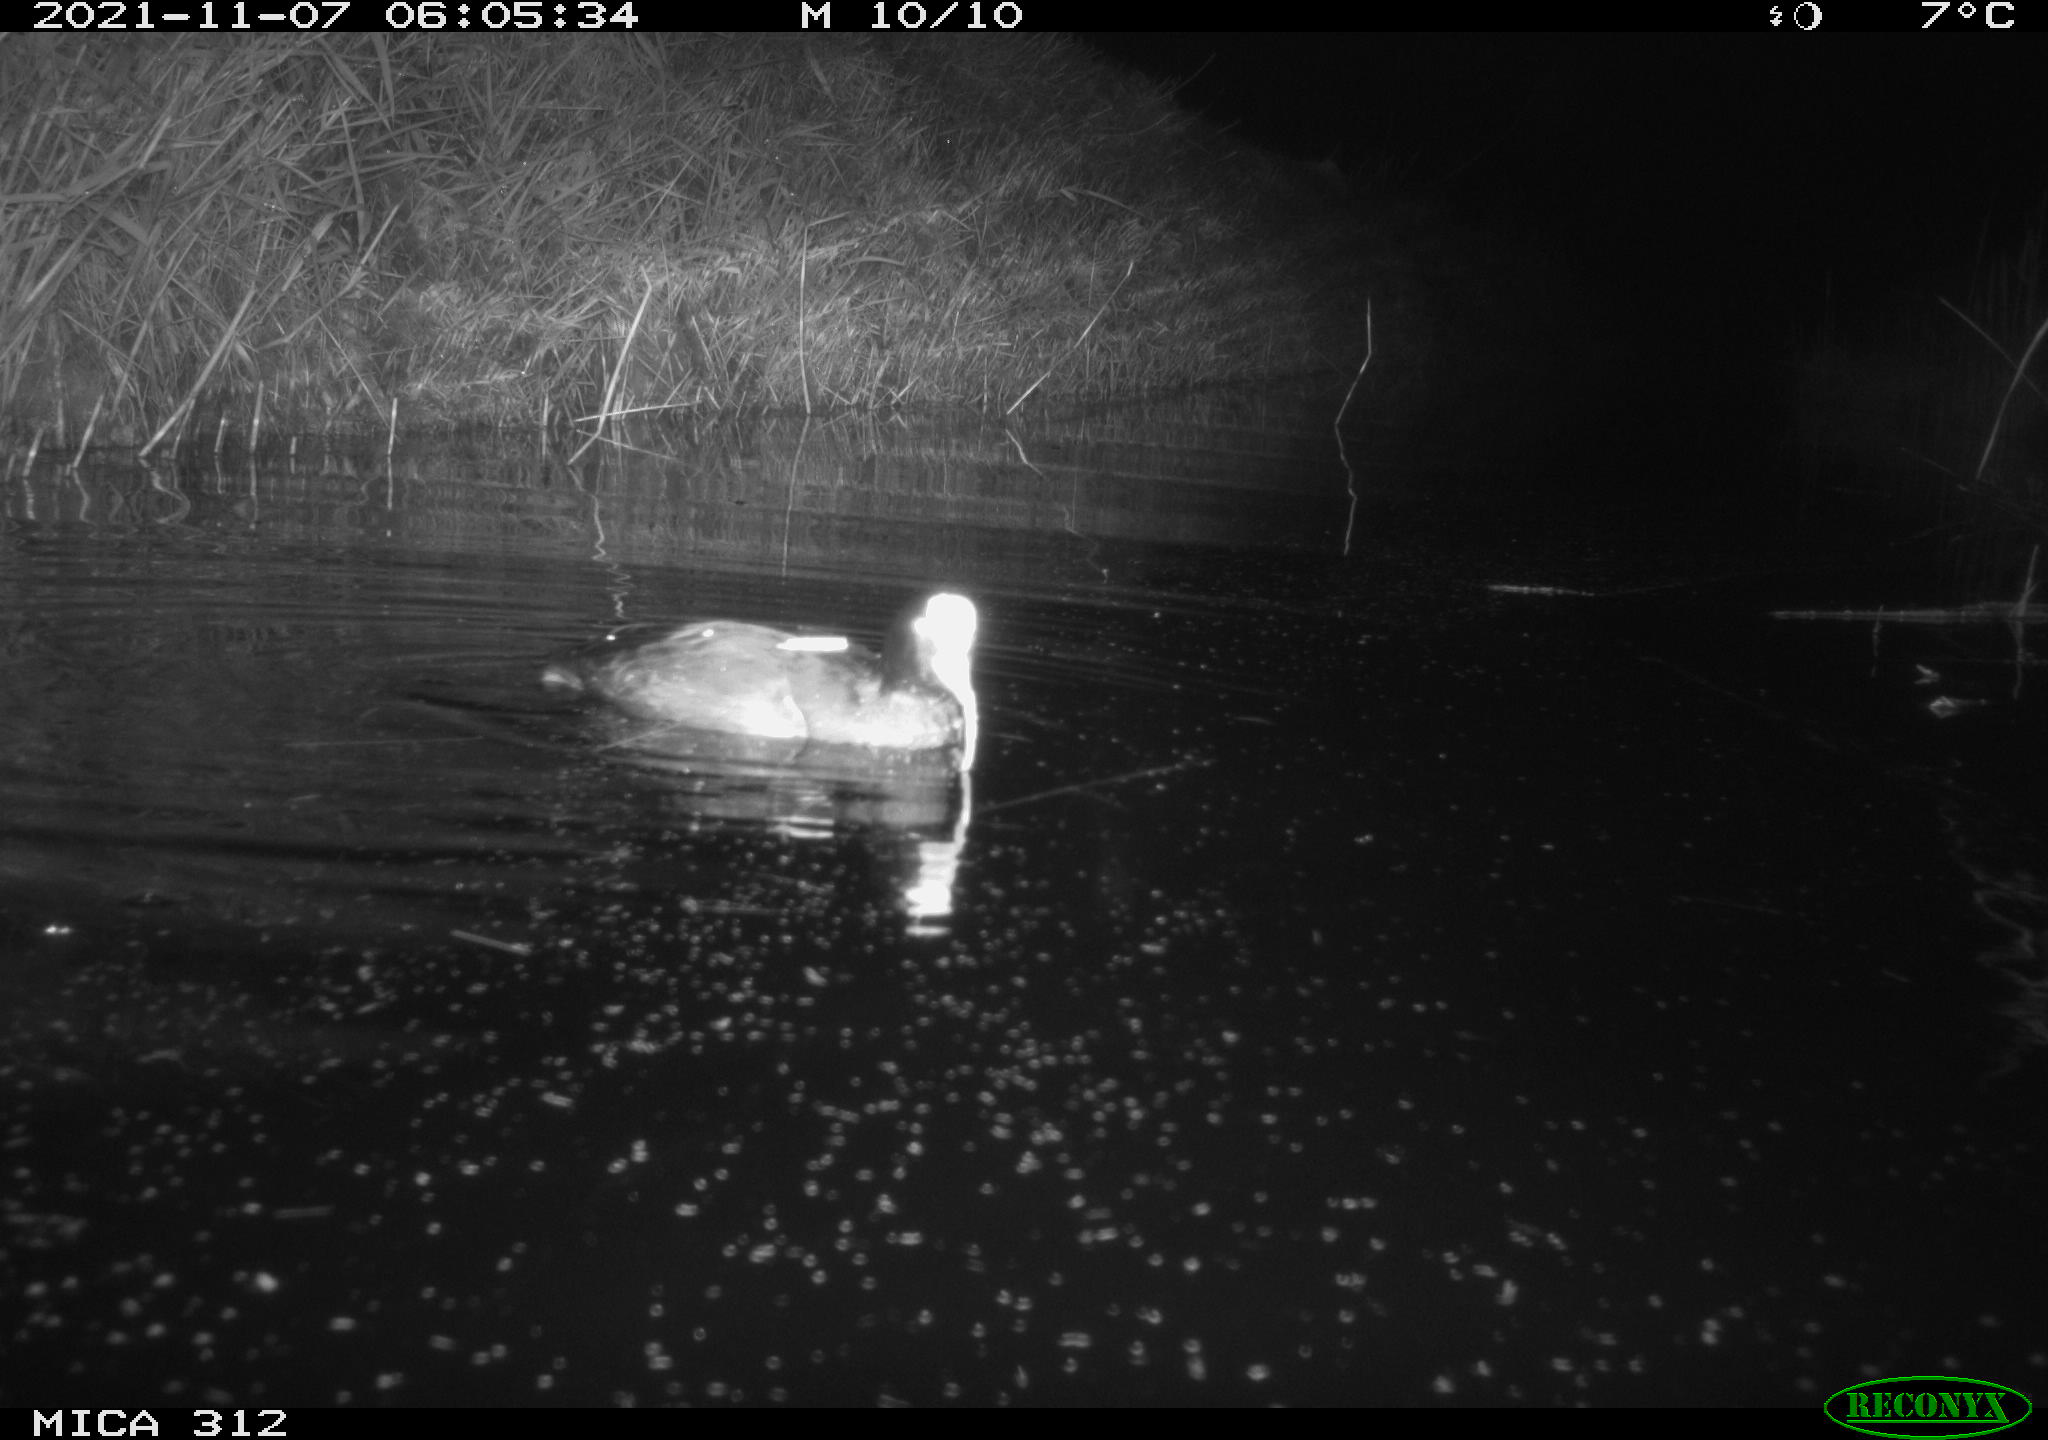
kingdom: Animalia
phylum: Chordata
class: Aves
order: Anseriformes
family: Anatidae
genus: Anas
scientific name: Anas
